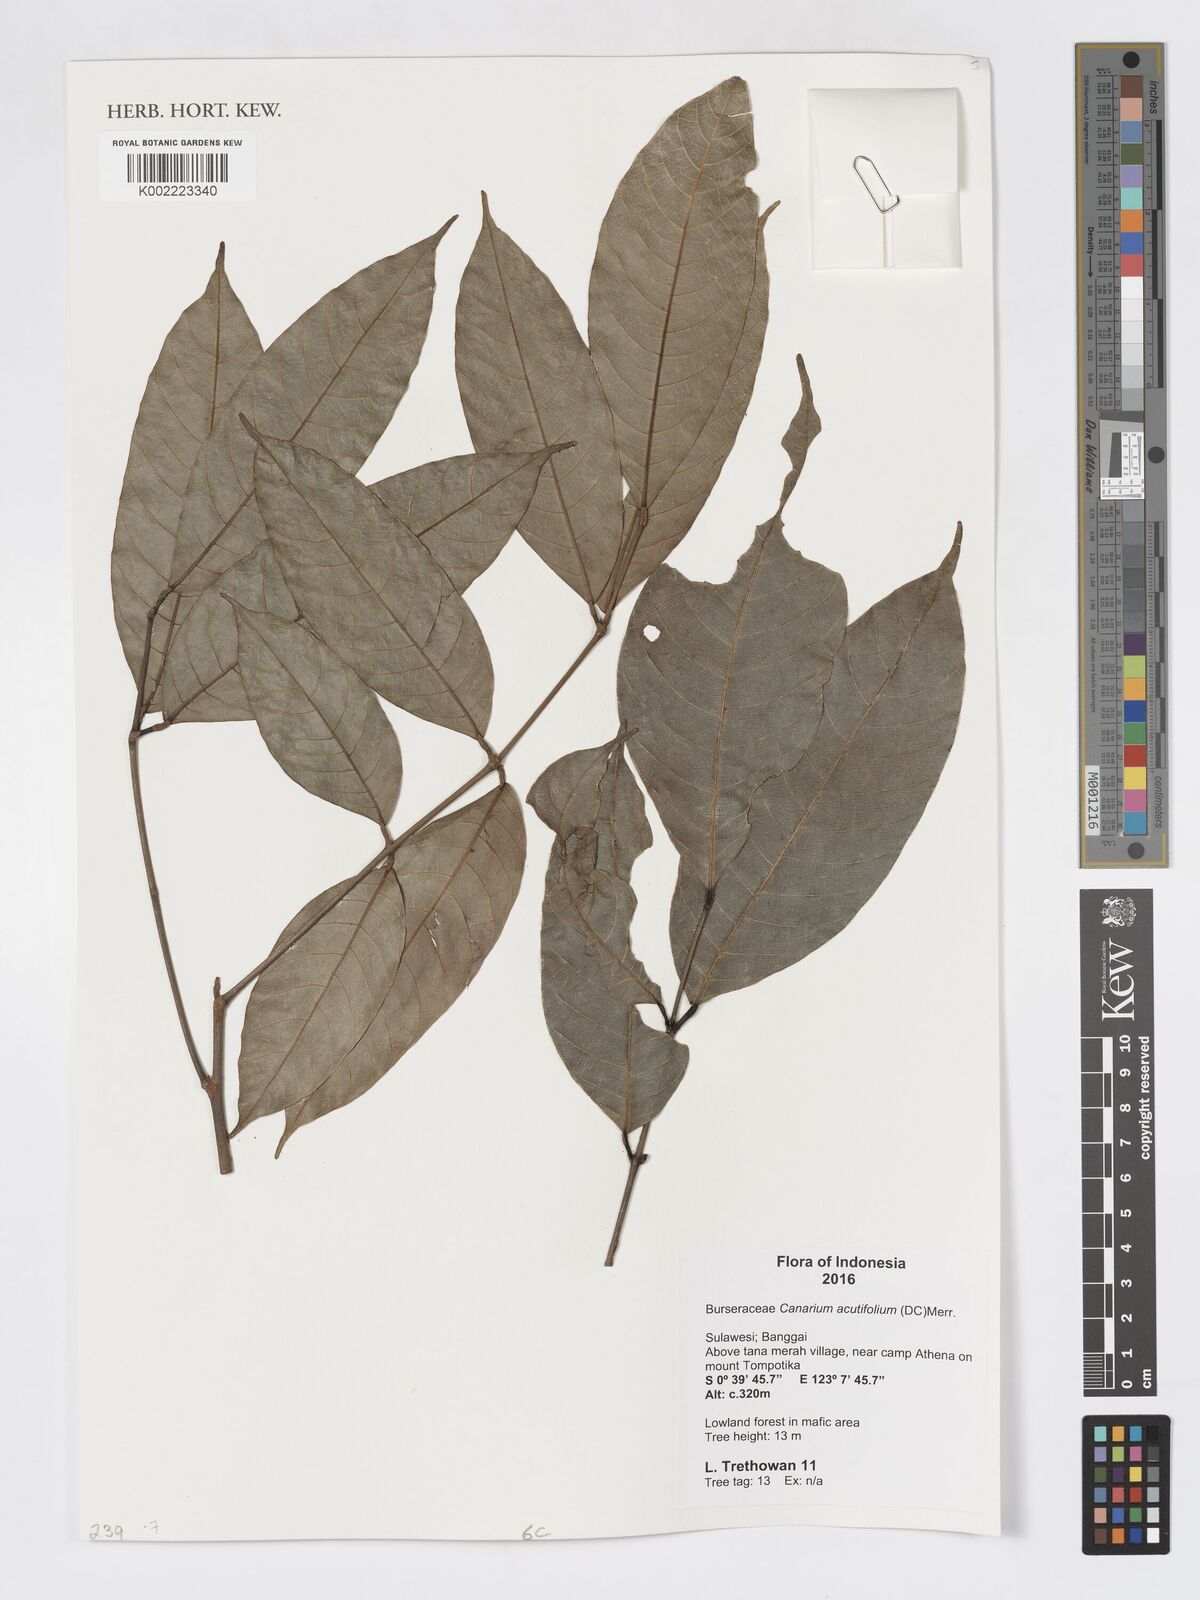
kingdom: Plantae
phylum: Tracheophyta
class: Magnoliopsida
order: Sapindales
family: Burseraceae
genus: Canarium
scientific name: Canarium acutifolium
